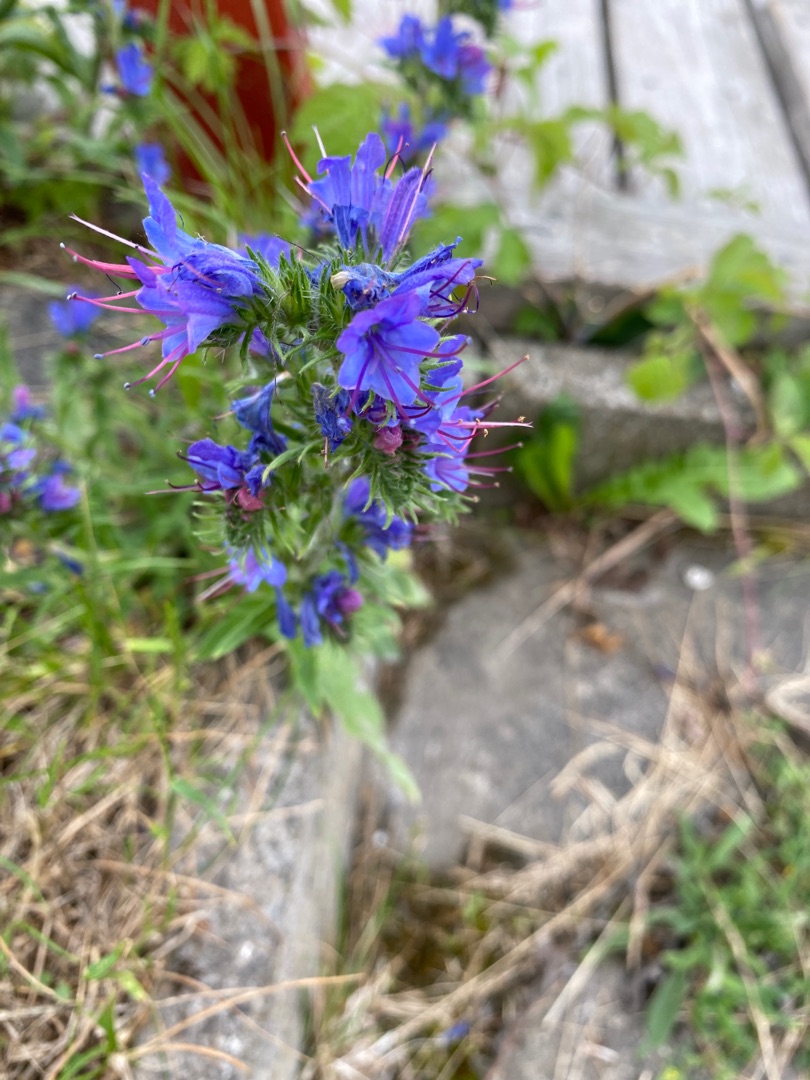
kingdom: Plantae
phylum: Tracheophyta
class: Magnoliopsida
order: Boraginales
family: Boraginaceae
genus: Echium
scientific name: Echium vulgare
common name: Slangehoved
